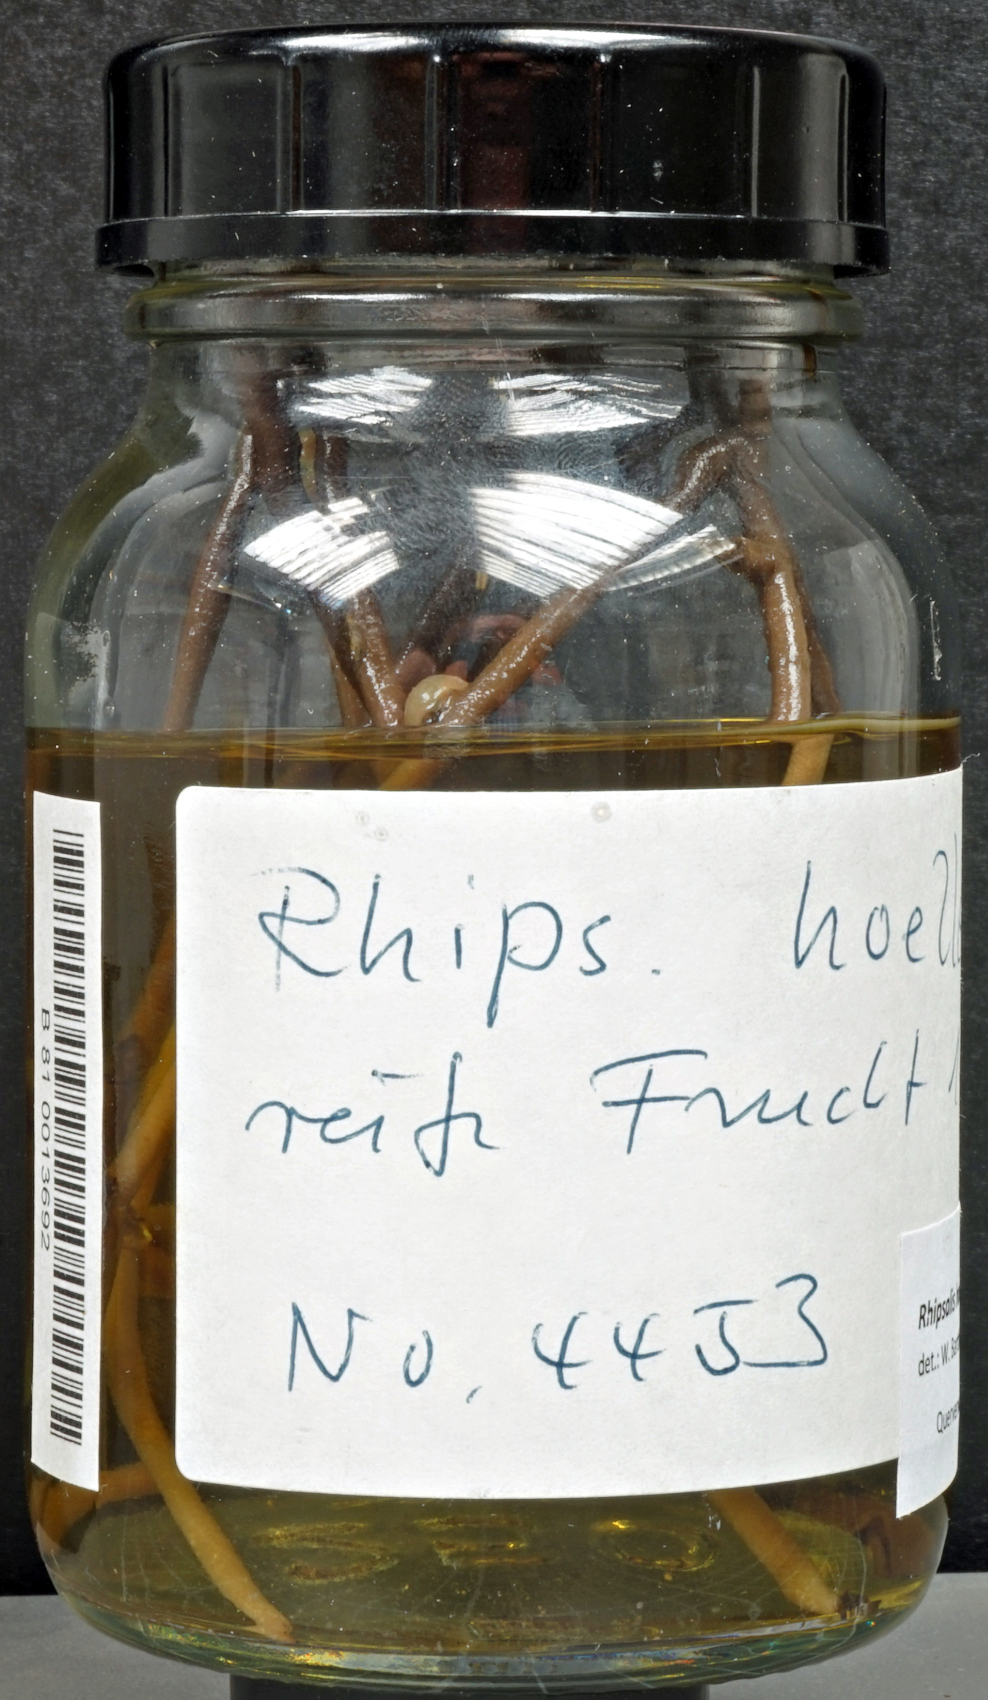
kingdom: Plantae
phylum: Tracheophyta
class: Magnoliopsida
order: Caryophyllales
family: Cactaceae
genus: Rhipsalis
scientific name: Rhipsalis hoelleri
